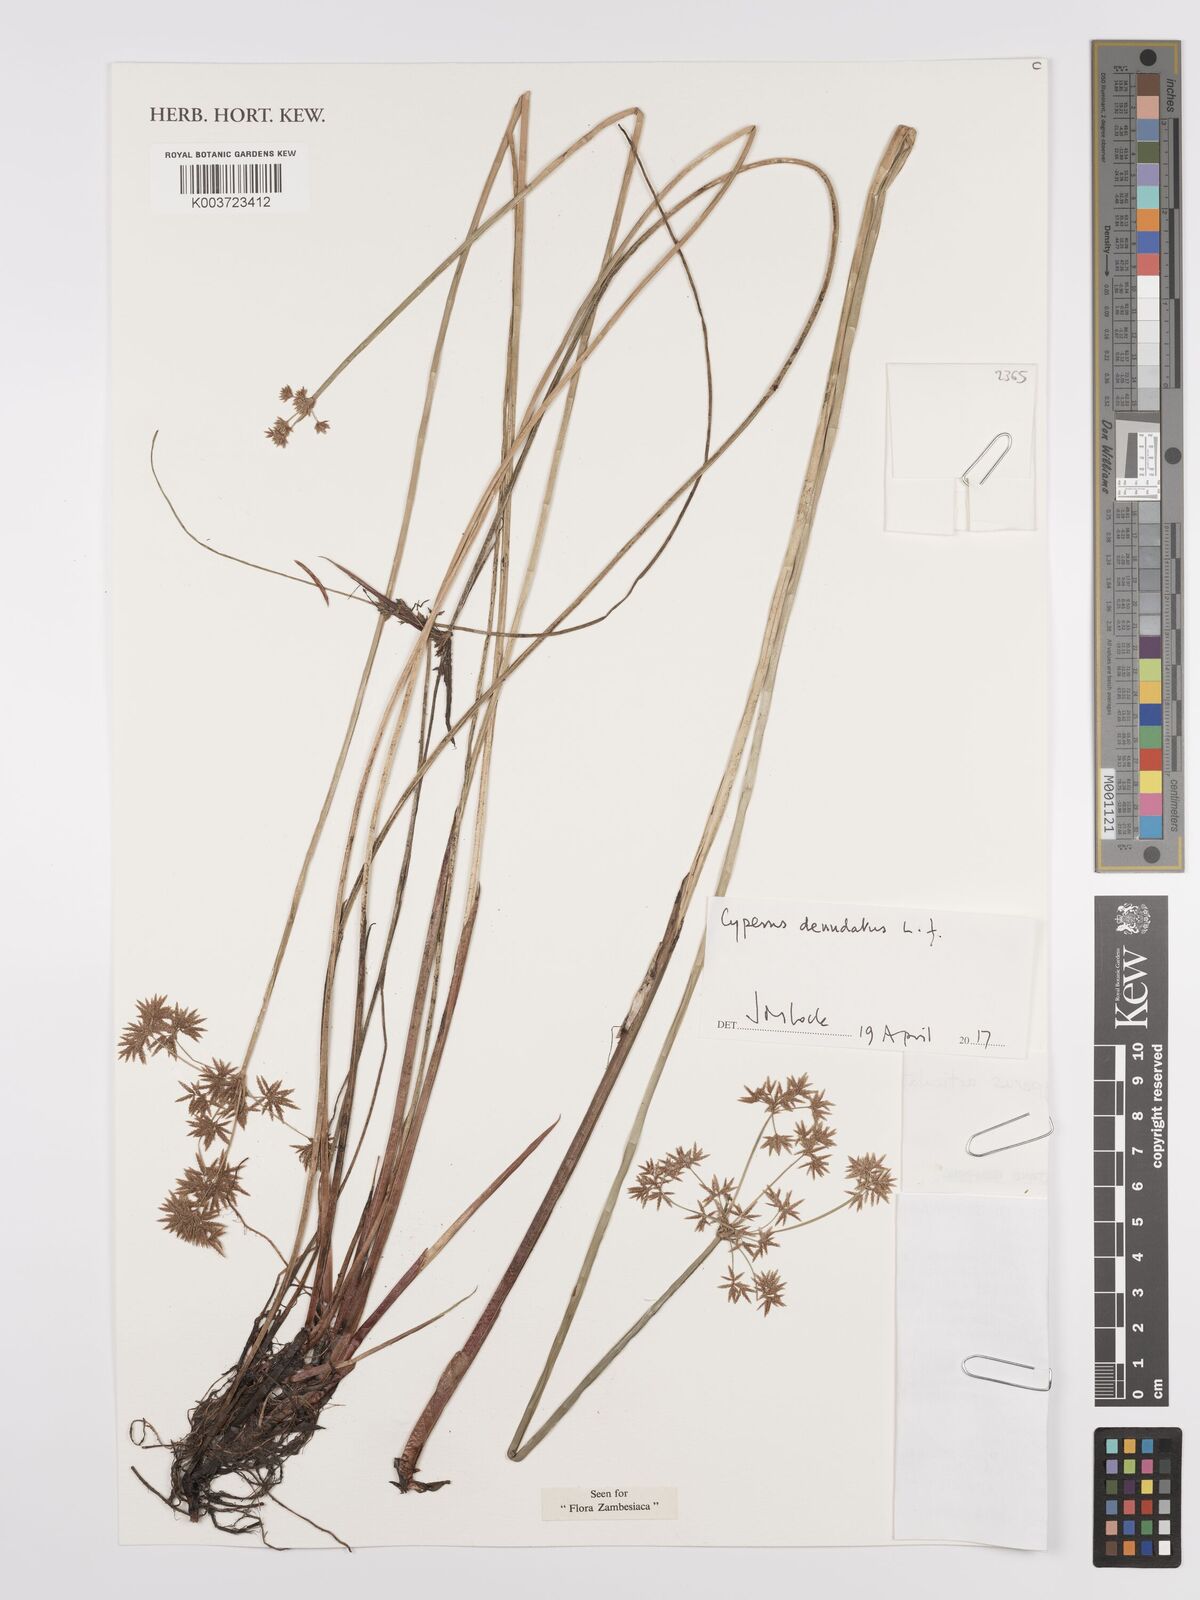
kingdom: Plantae
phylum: Tracheophyta
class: Liliopsida
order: Poales
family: Cyperaceae
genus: Cyperus
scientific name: Cyperus denudatus
